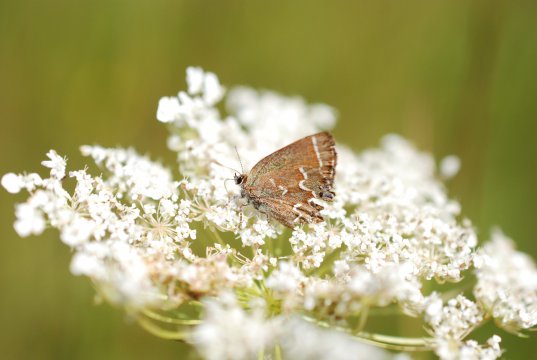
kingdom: Animalia
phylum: Arthropoda
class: Insecta
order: Lepidoptera
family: Lycaenidae
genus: Mitoura
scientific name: Mitoura gryneus
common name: Juniper Hairstreak
